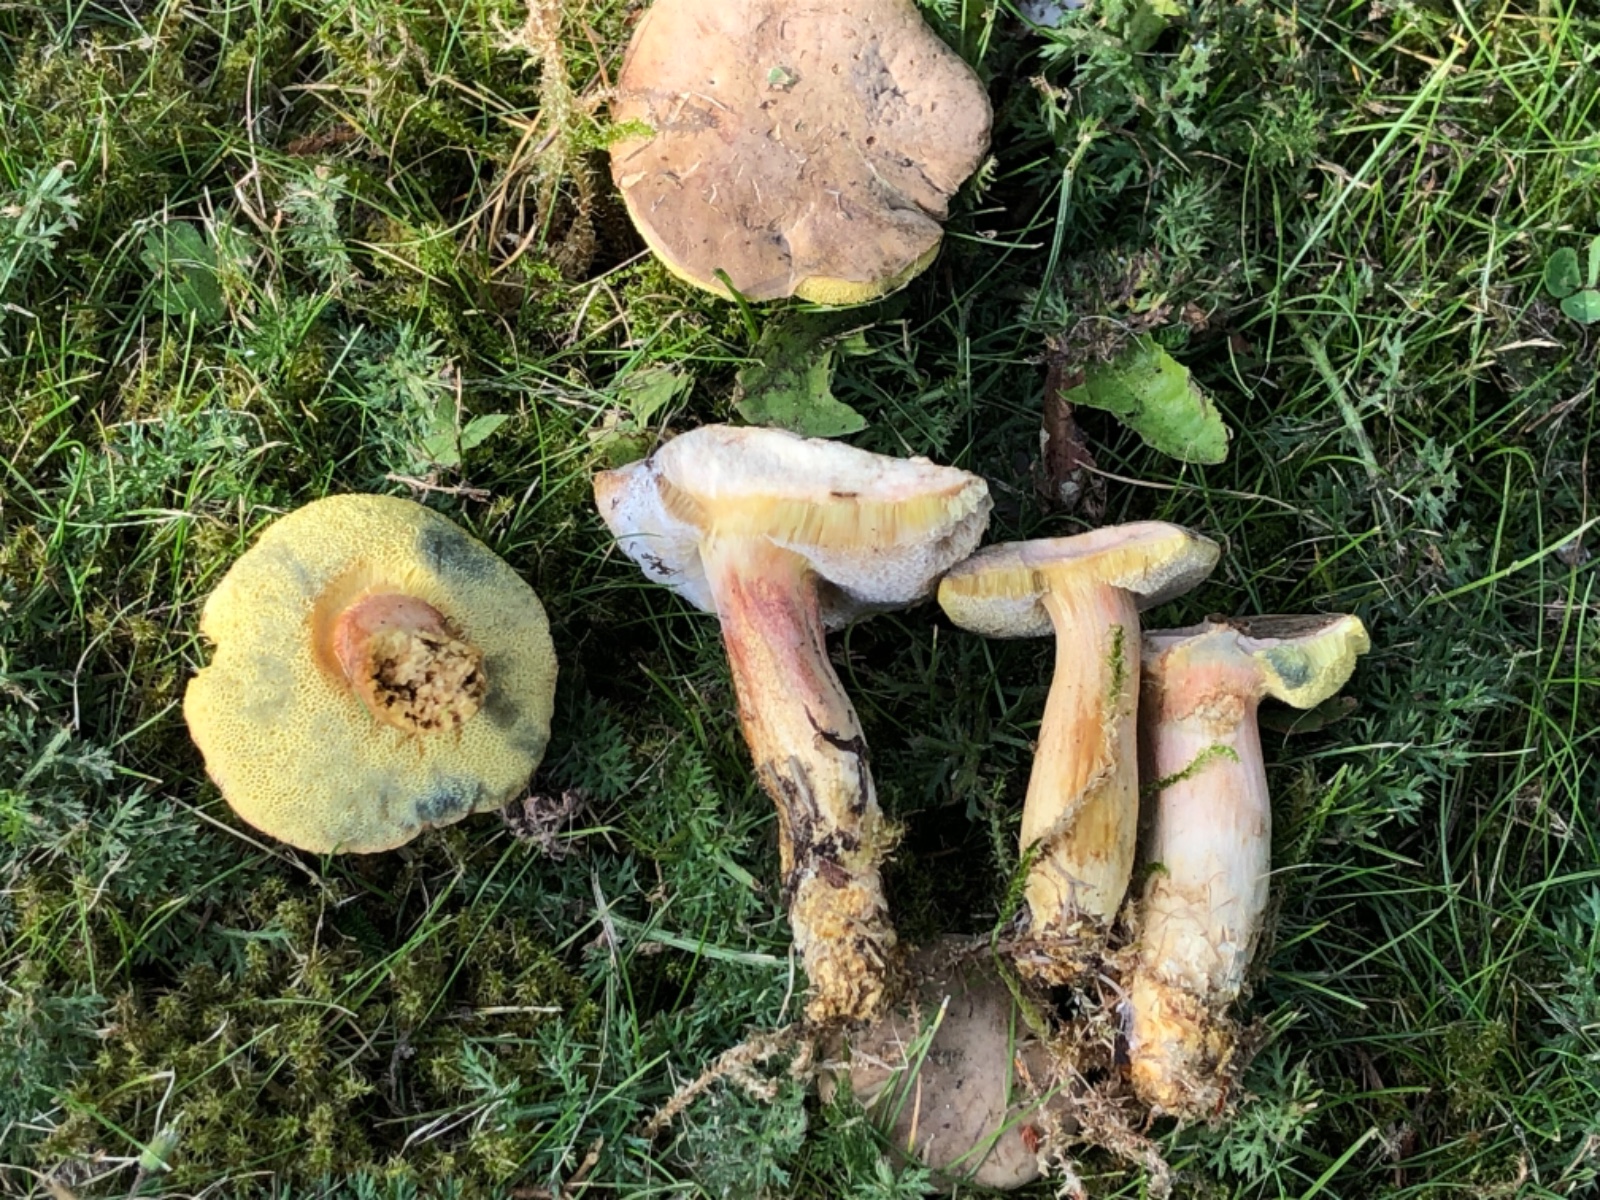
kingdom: Fungi
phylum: Basidiomycota
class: Agaricomycetes
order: Boletales
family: Boletaceae
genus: Hortiboletus
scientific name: Hortiboletus bubalinus
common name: aurora-rørhat
